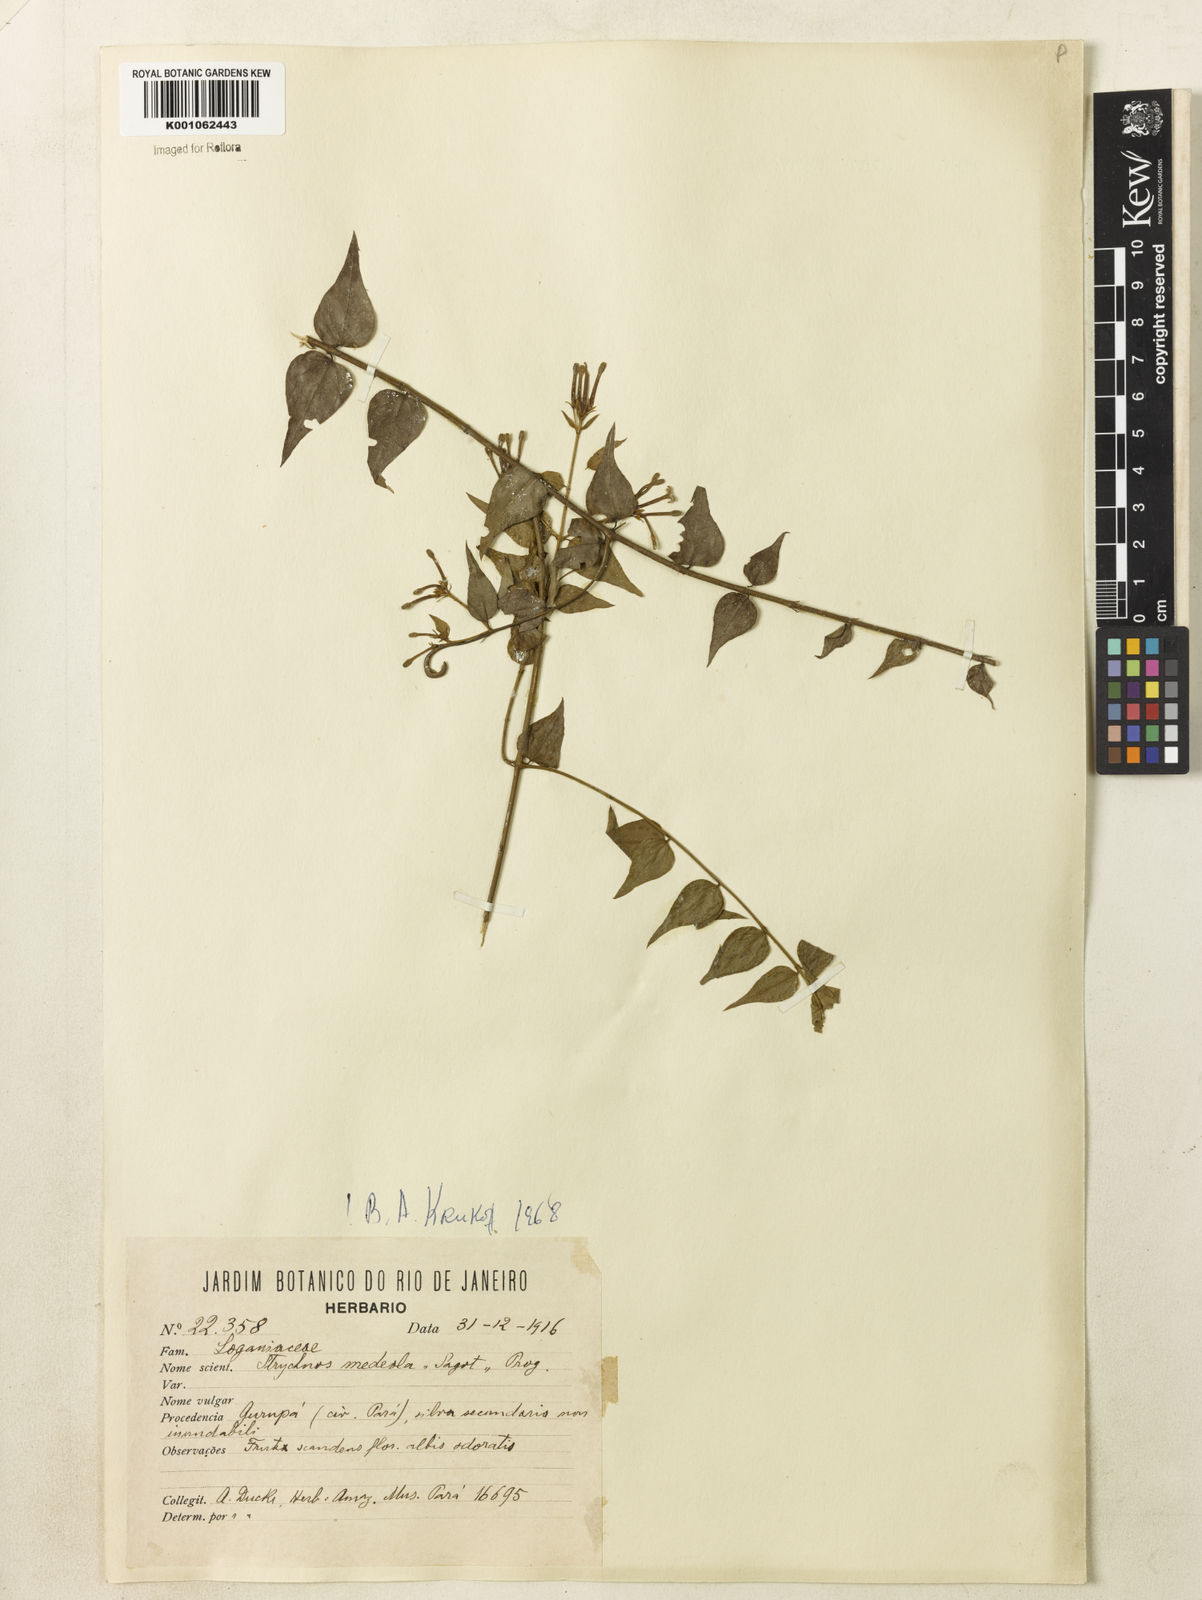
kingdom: Plantae
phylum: Tracheophyta
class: Magnoliopsida
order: Gentianales
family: Loganiaceae
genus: Strychnos
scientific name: Strychnos medeola
